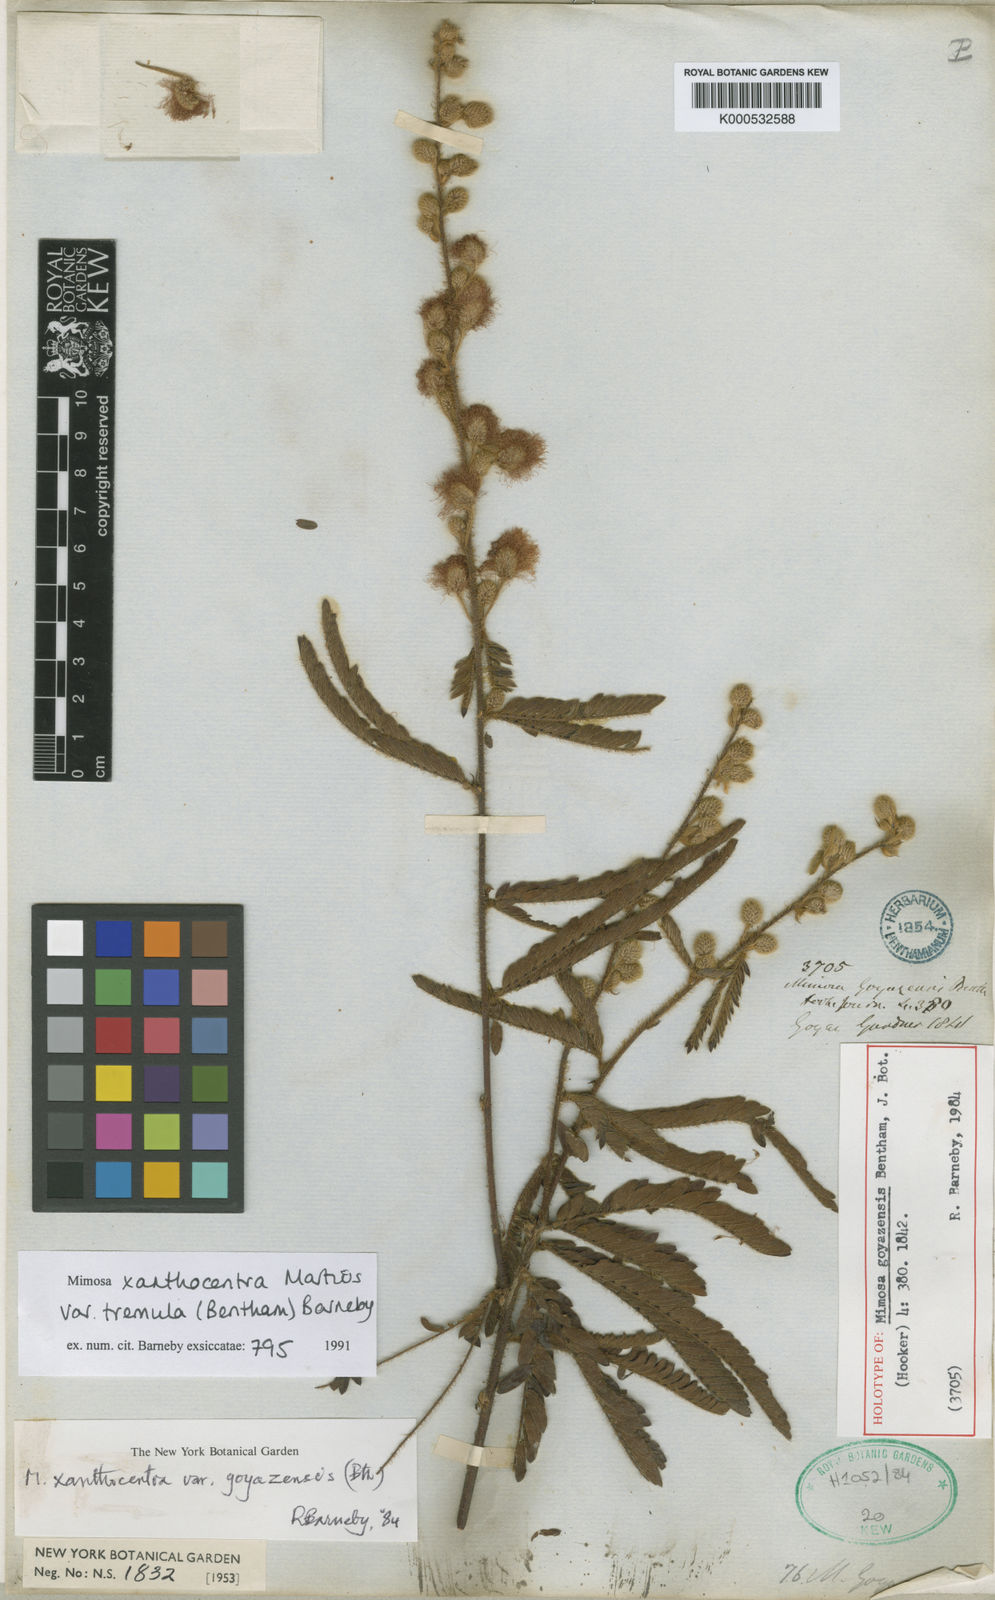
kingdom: Plantae
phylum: Tracheophyta
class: Magnoliopsida
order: Fabales
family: Fabaceae
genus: Mimosa
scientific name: Mimosa xanthocentra
